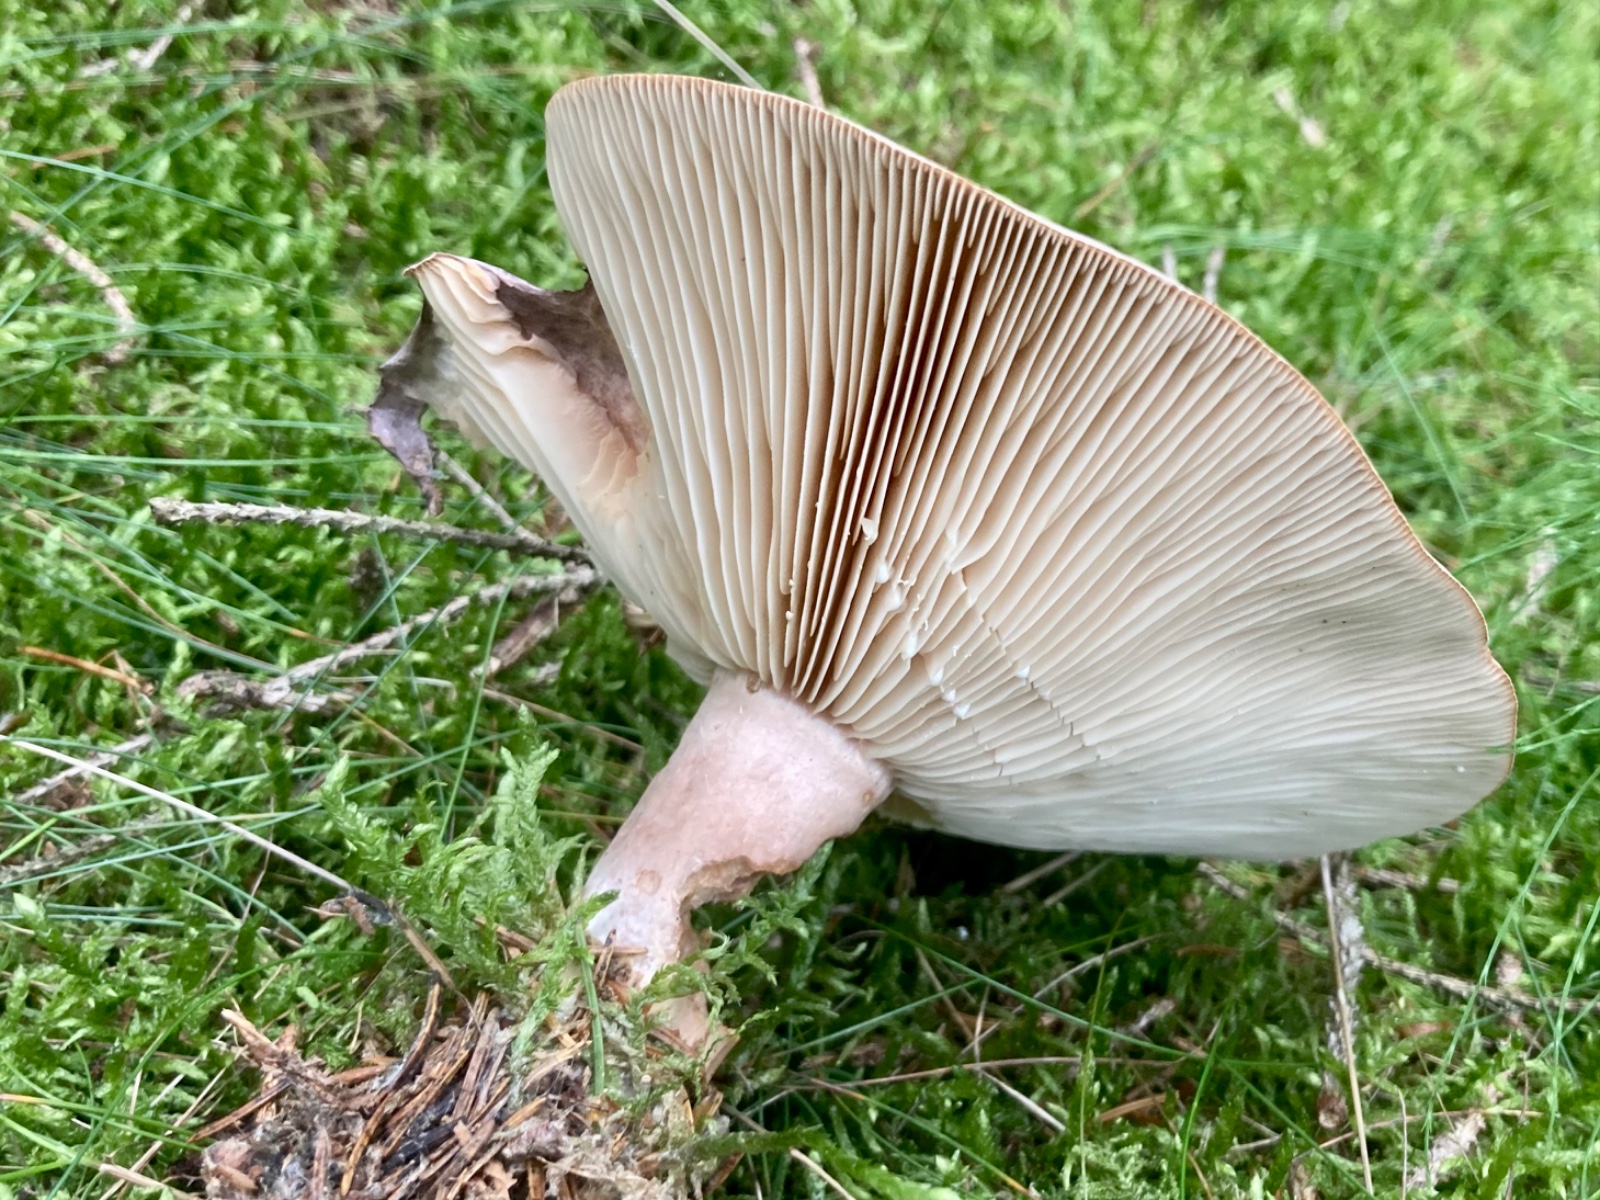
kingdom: Fungi
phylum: Basidiomycota
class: Agaricomycetes
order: Russulales
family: Russulaceae
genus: Lactarius
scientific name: Lactarius trivialis
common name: nordisk mælkehat
